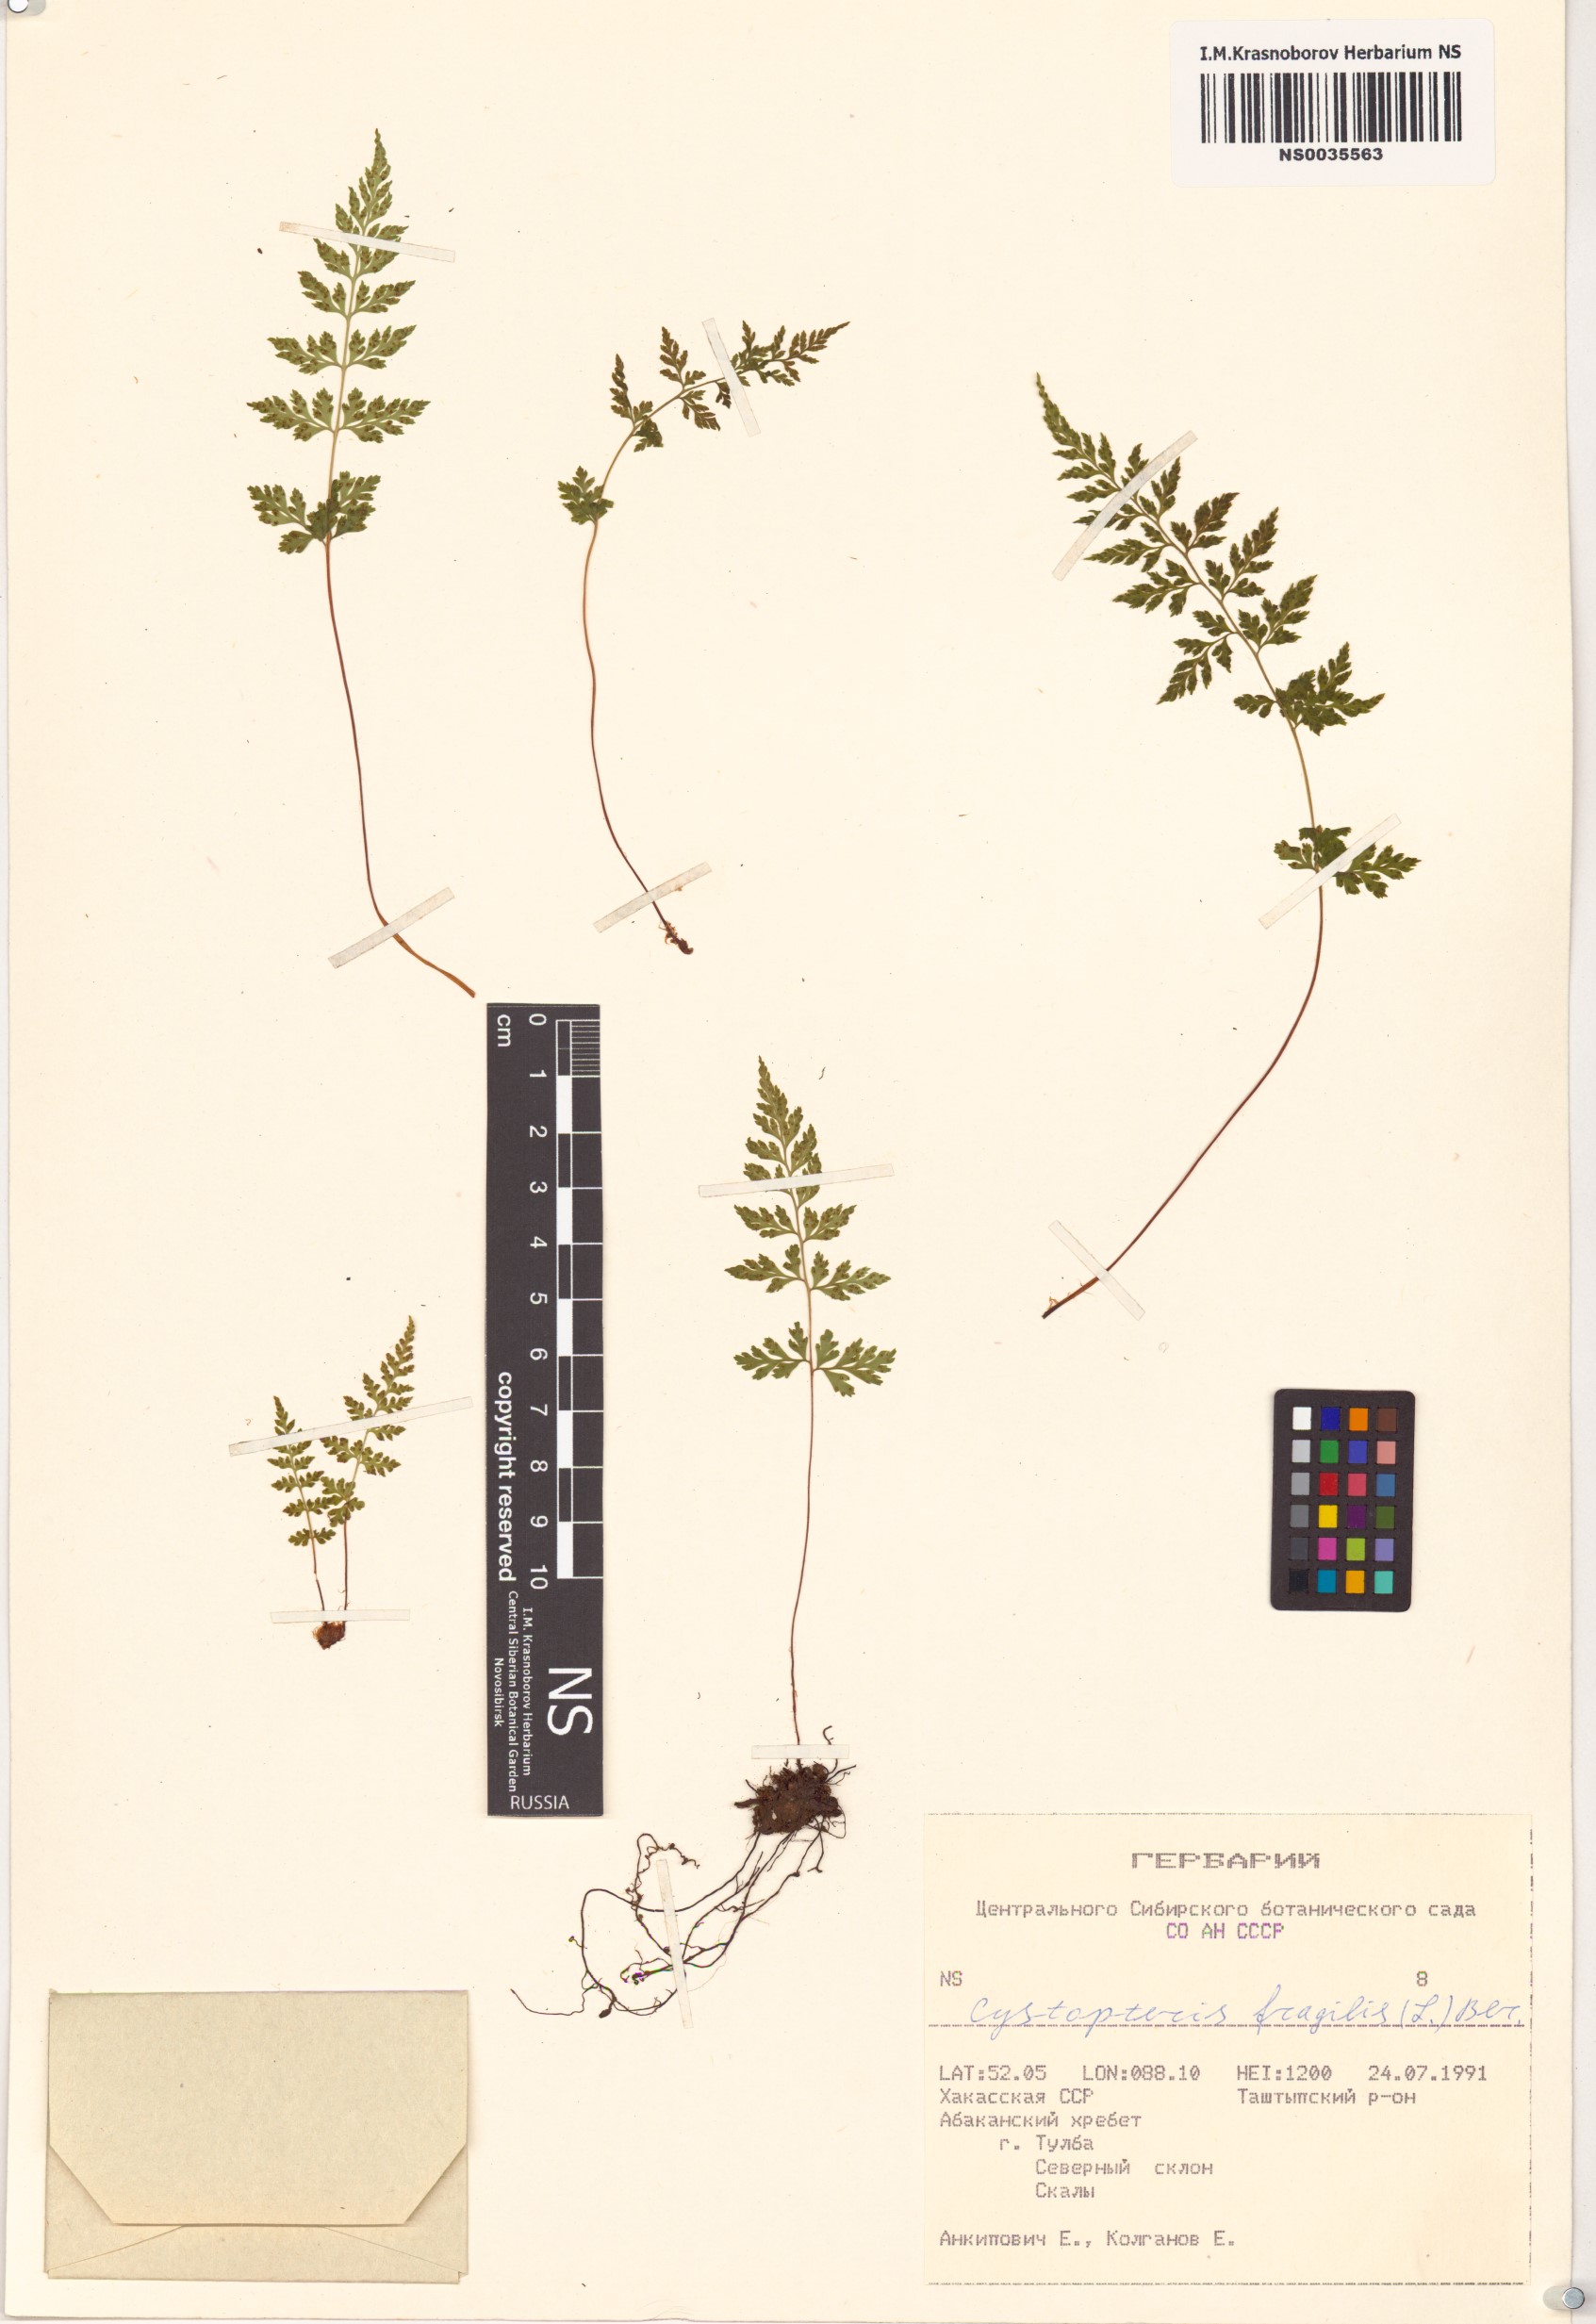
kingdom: Plantae
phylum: Tracheophyta
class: Polypodiopsida
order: Polypodiales
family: Cystopteridaceae
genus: Cystopteris
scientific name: Cystopteris fragilis
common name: Brittle bladder fern
